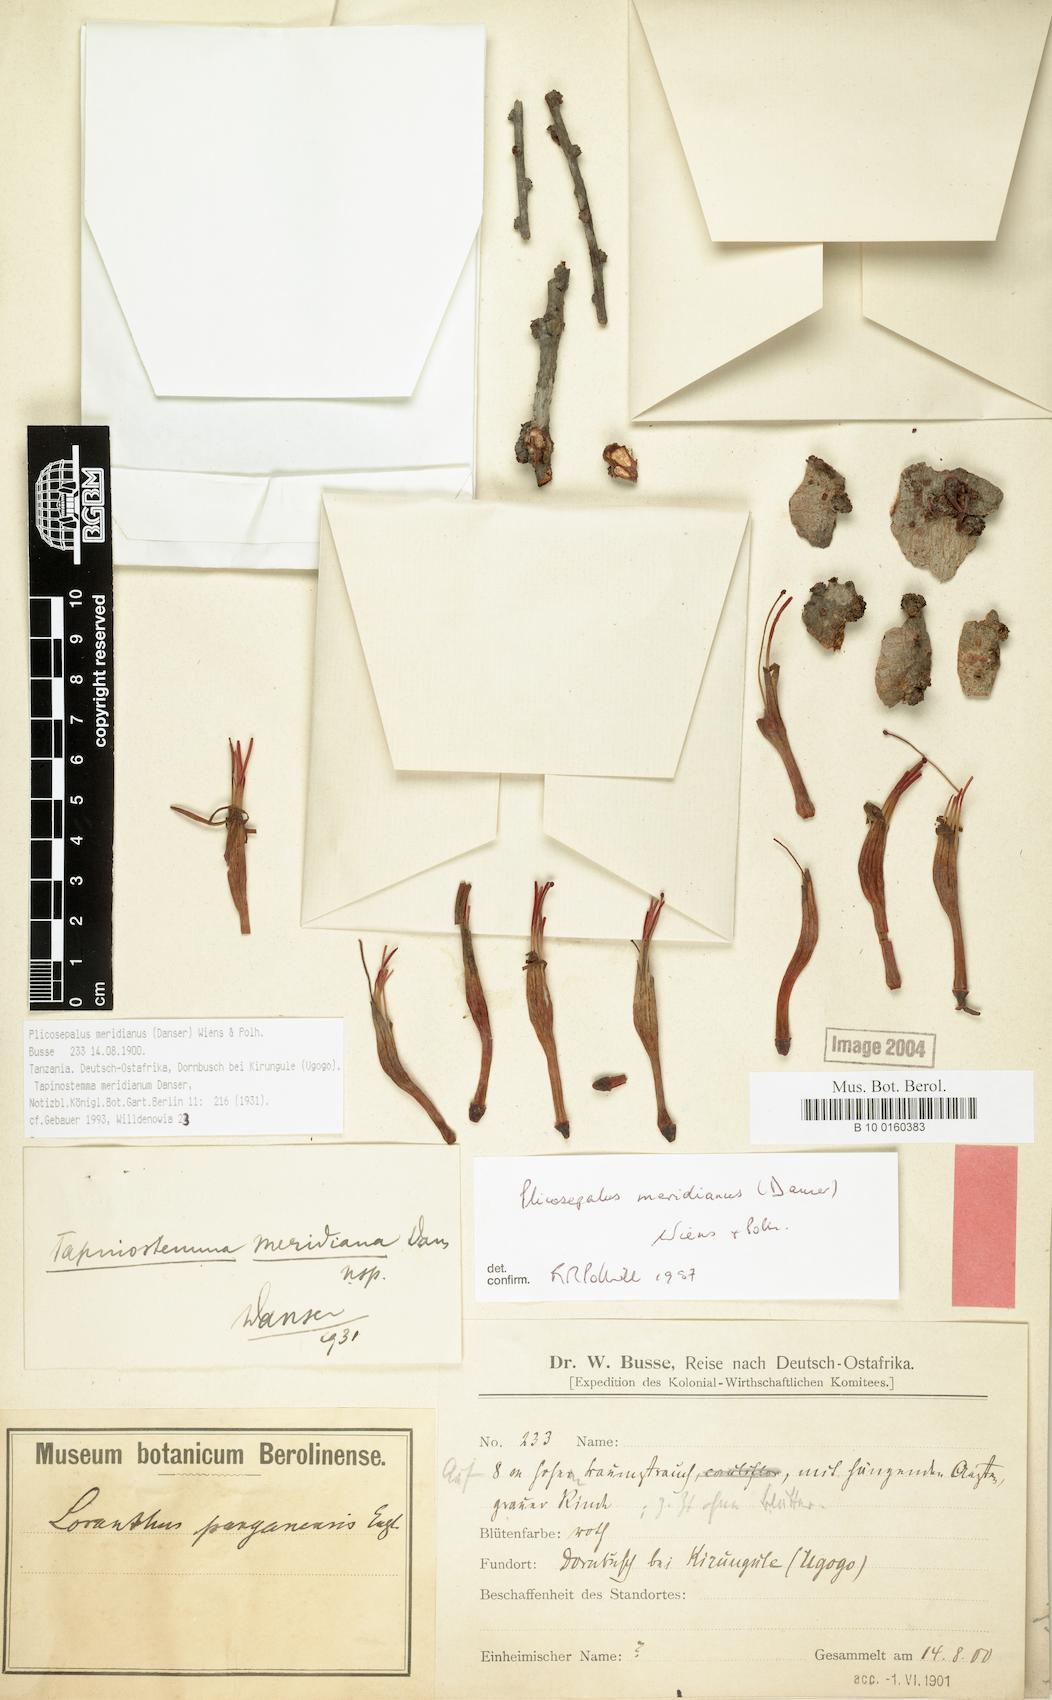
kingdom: Plantae
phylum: Tracheophyta
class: Magnoliopsida
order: Santalales
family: Loranthaceae
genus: Plicosepalus
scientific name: Plicosepalus meridianus
